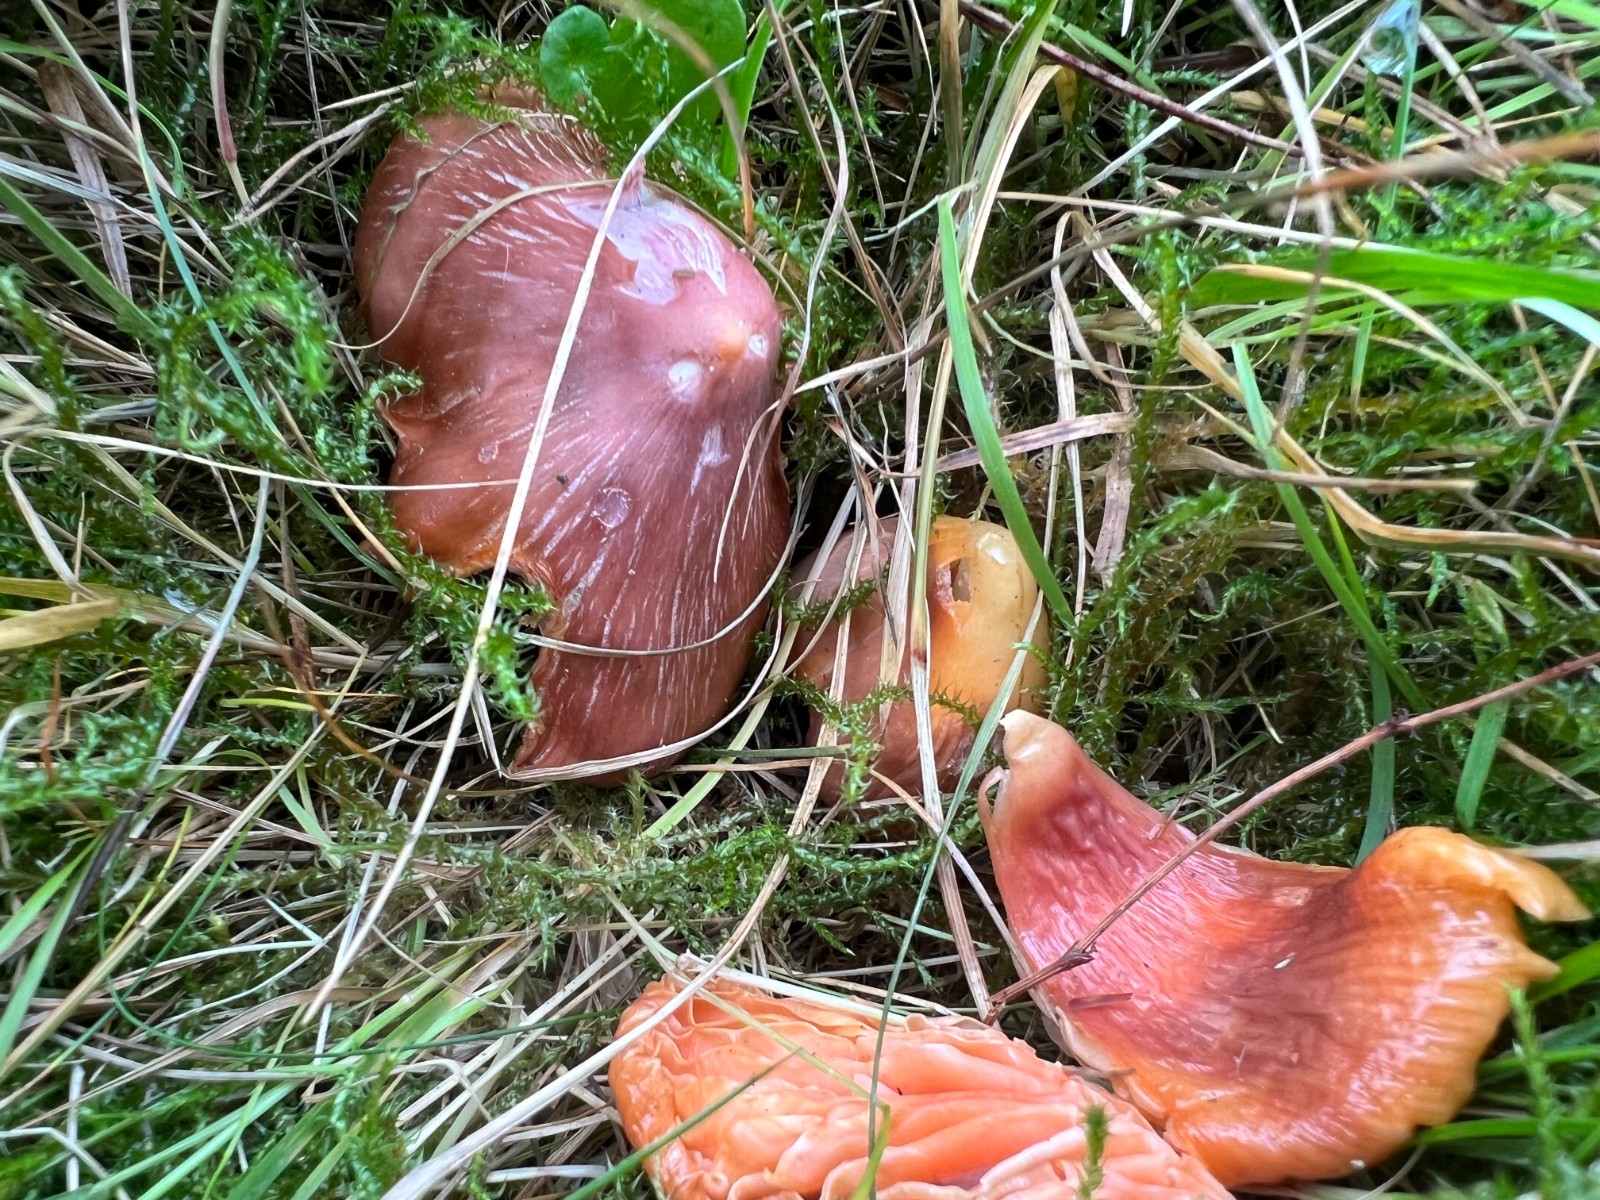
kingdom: Fungi
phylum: Basidiomycota
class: Agaricomycetes
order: Agaricales
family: Hygrophoraceae
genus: Porpolomopsis
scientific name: Porpolomopsis calyptriformis
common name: rosenrød vokshat
